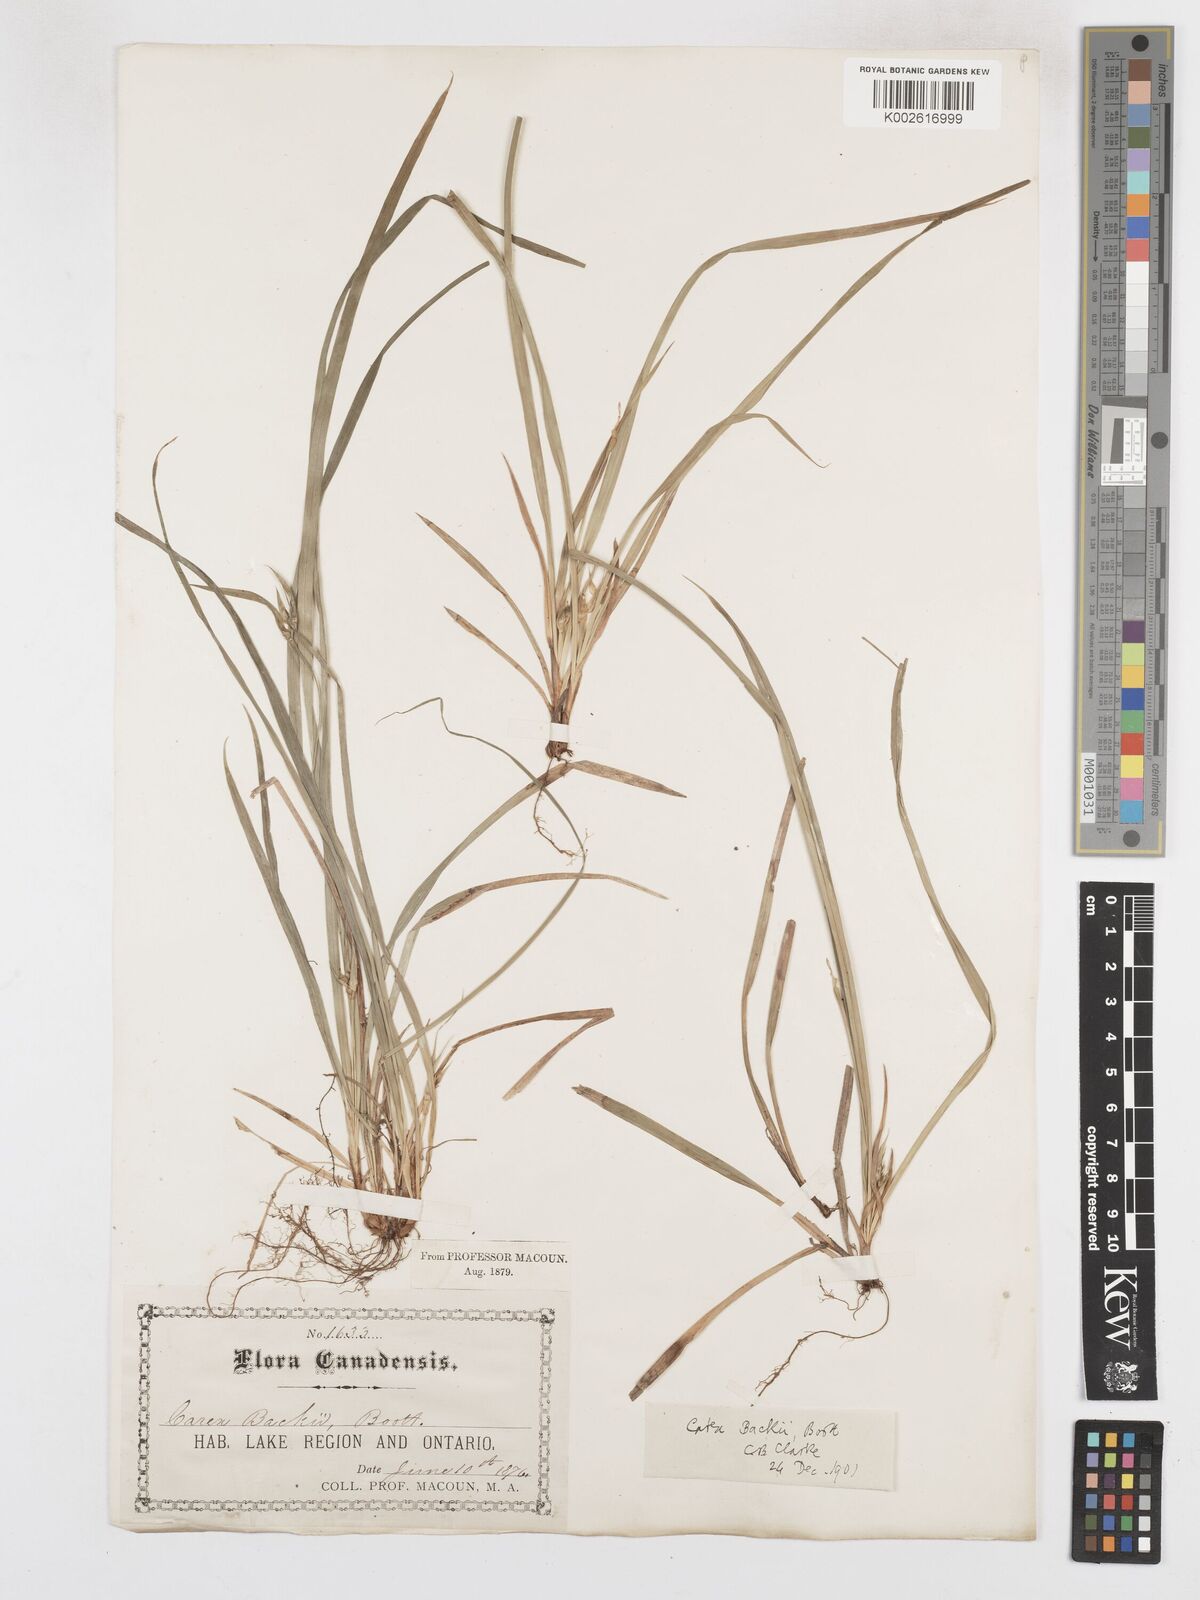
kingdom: Plantae
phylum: Tracheophyta
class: Liliopsida
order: Poales
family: Cyperaceae
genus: Carex
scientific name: Carex backii
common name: Back's sedge
